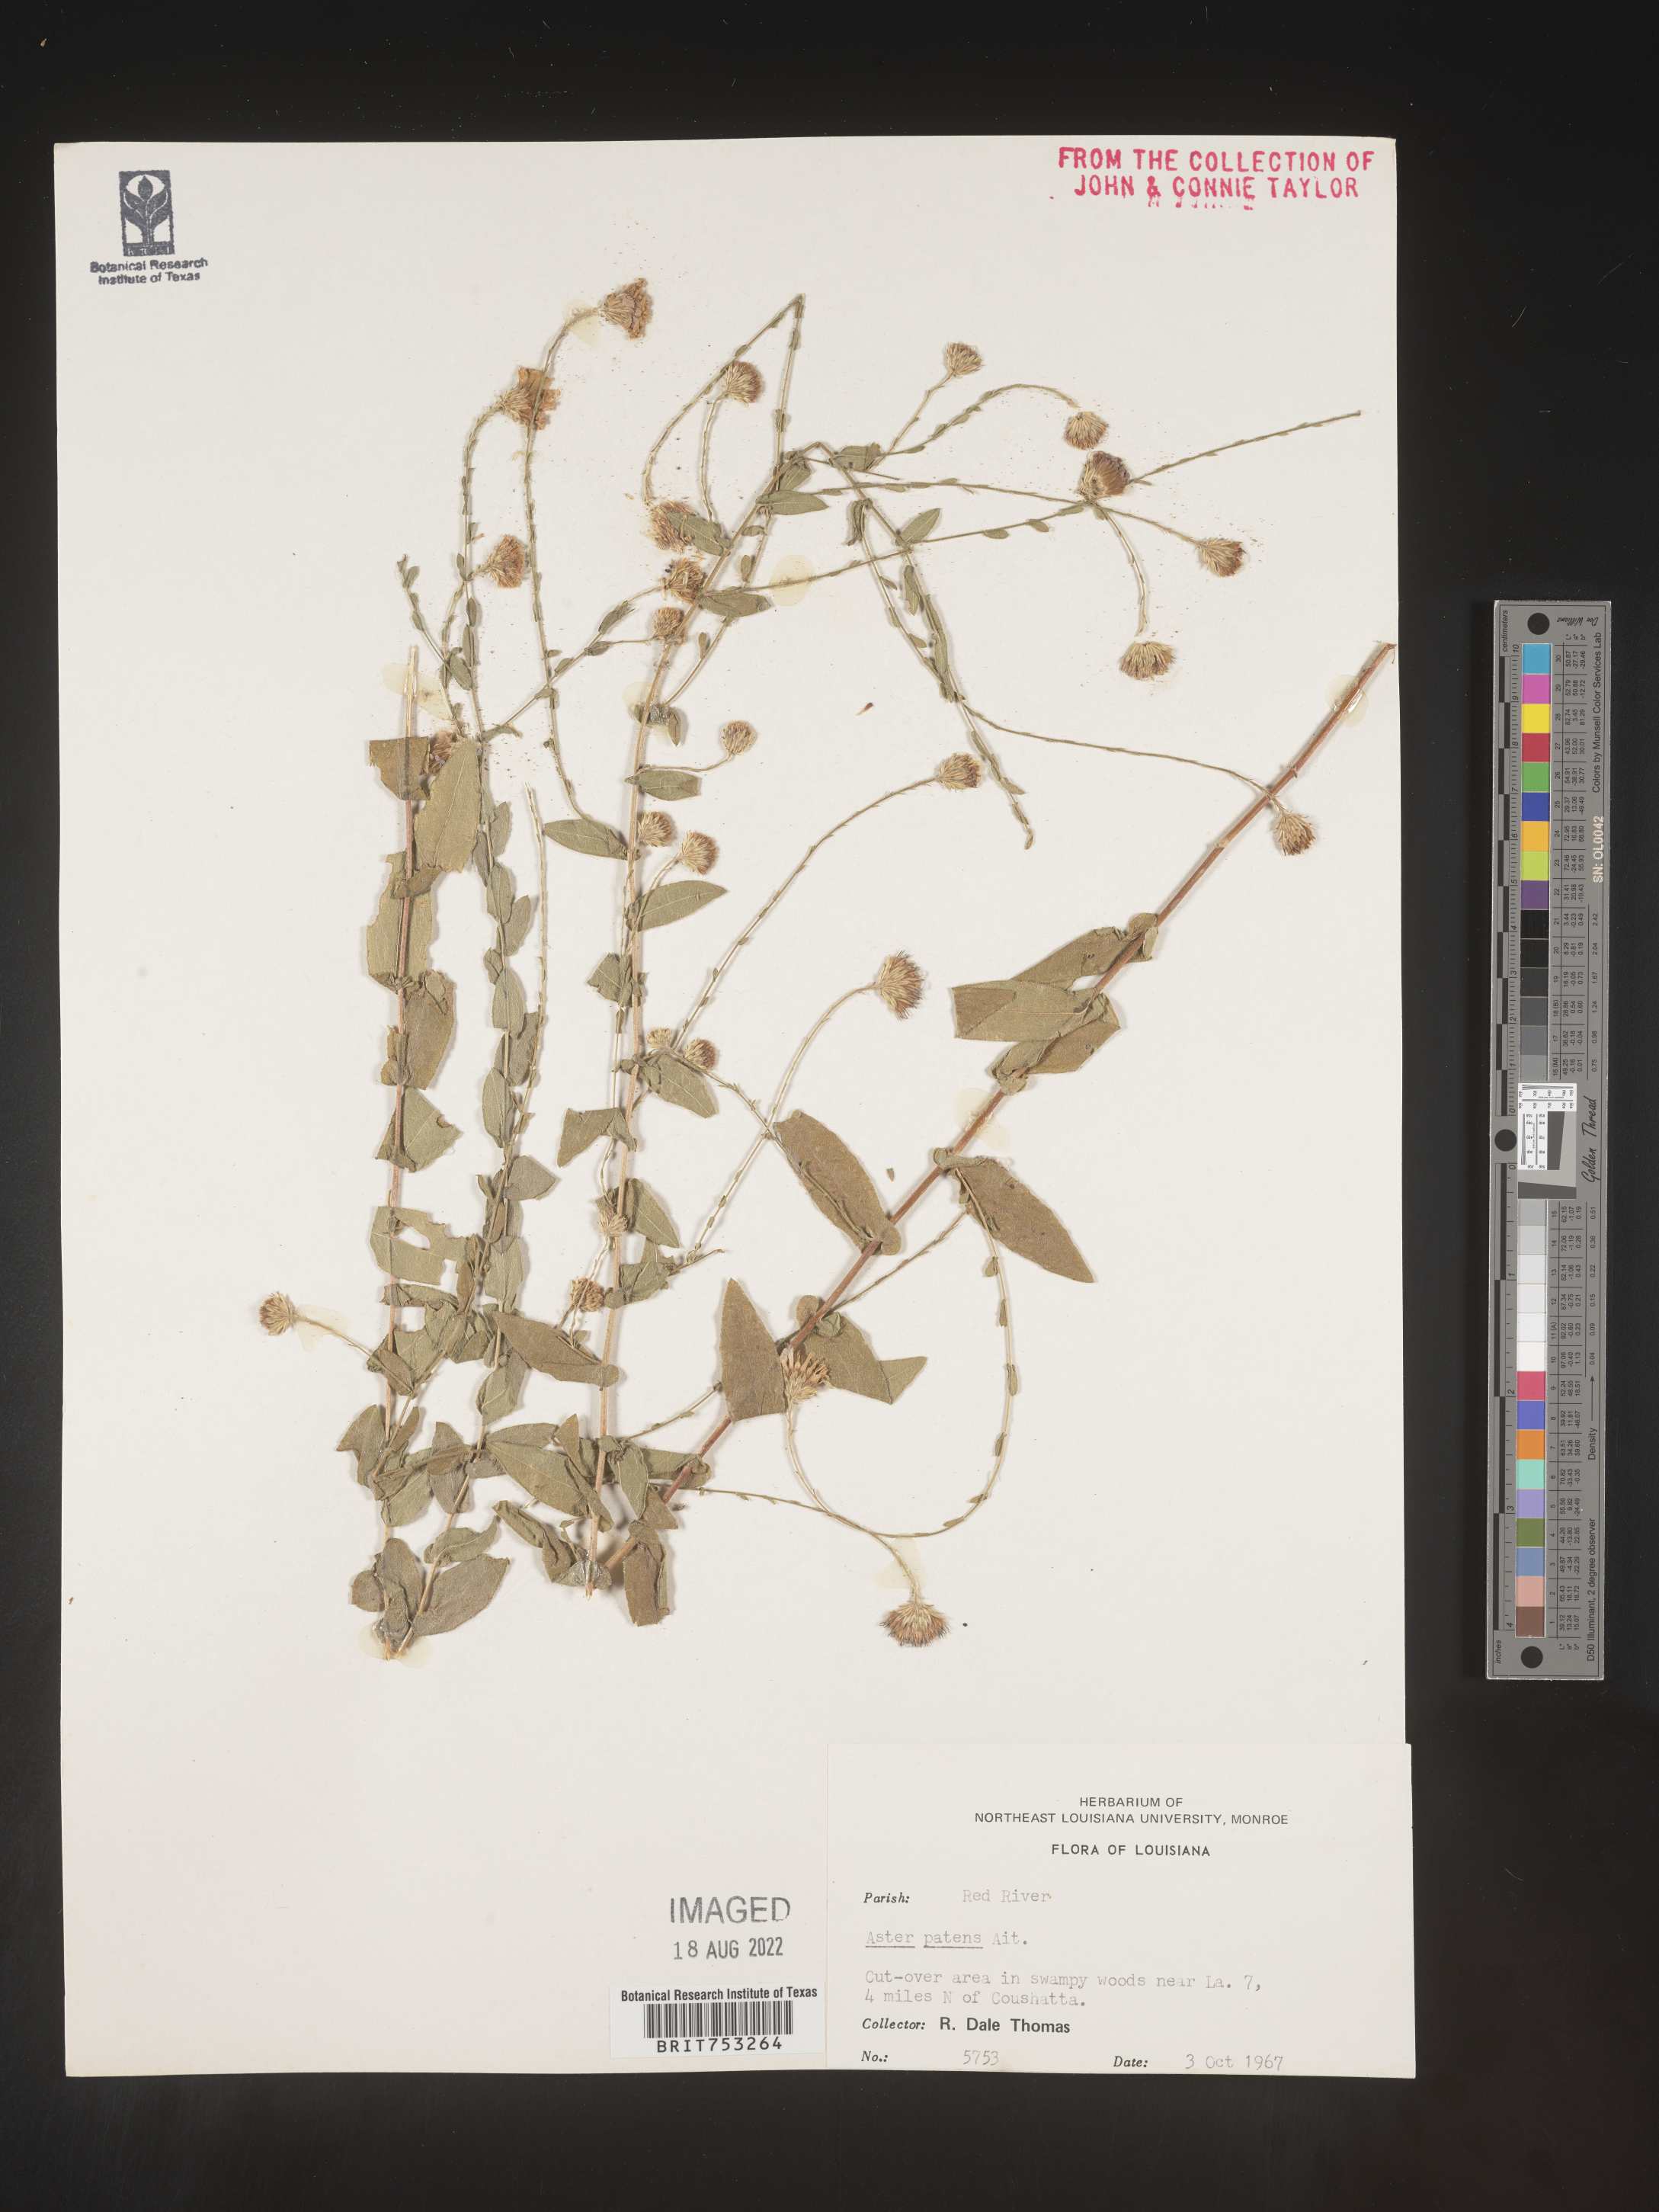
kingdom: Plantae
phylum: Tracheophyta
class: Magnoliopsida
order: Asterales
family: Asteraceae
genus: Symphyotrichum
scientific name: Symphyotrichum patens
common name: Late purple aster
